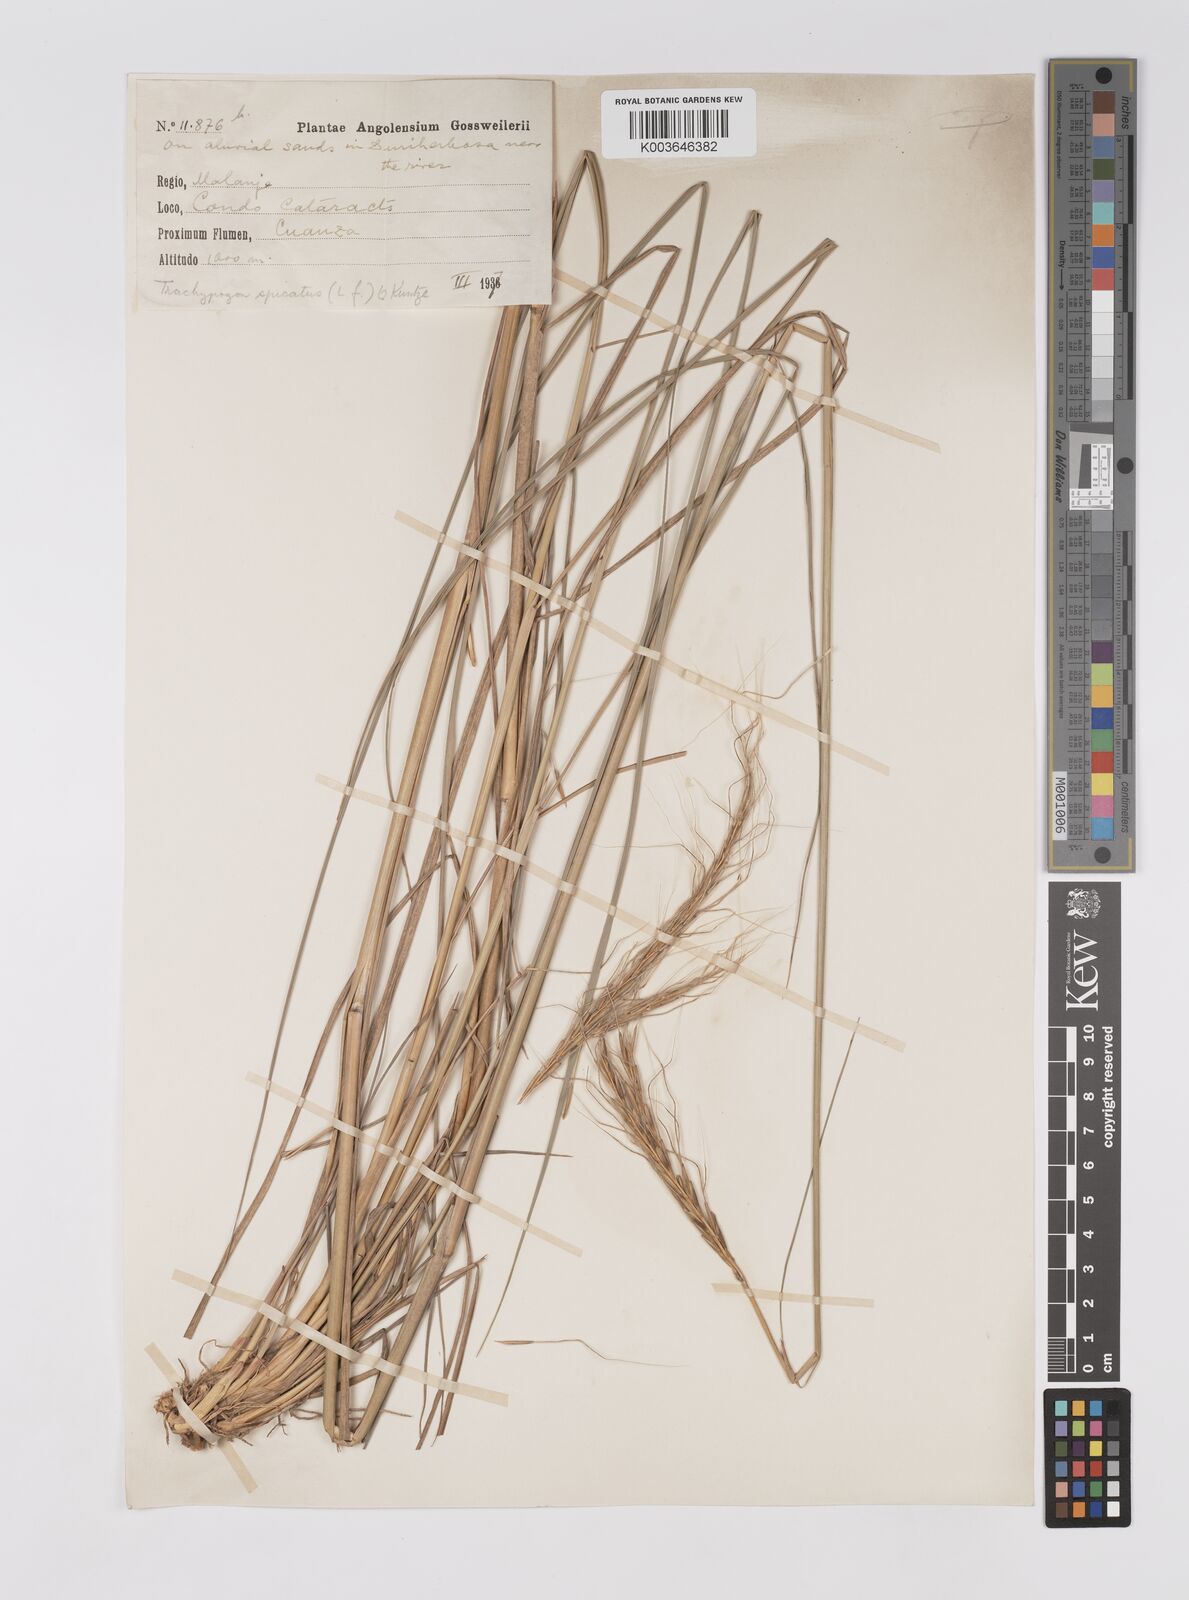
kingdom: Plantae
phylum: Tracheophyta
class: Liliopsida
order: Poales
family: Poaceae
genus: Trachypogon
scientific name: Trachypogon spicatus
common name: Crinkle-awn
